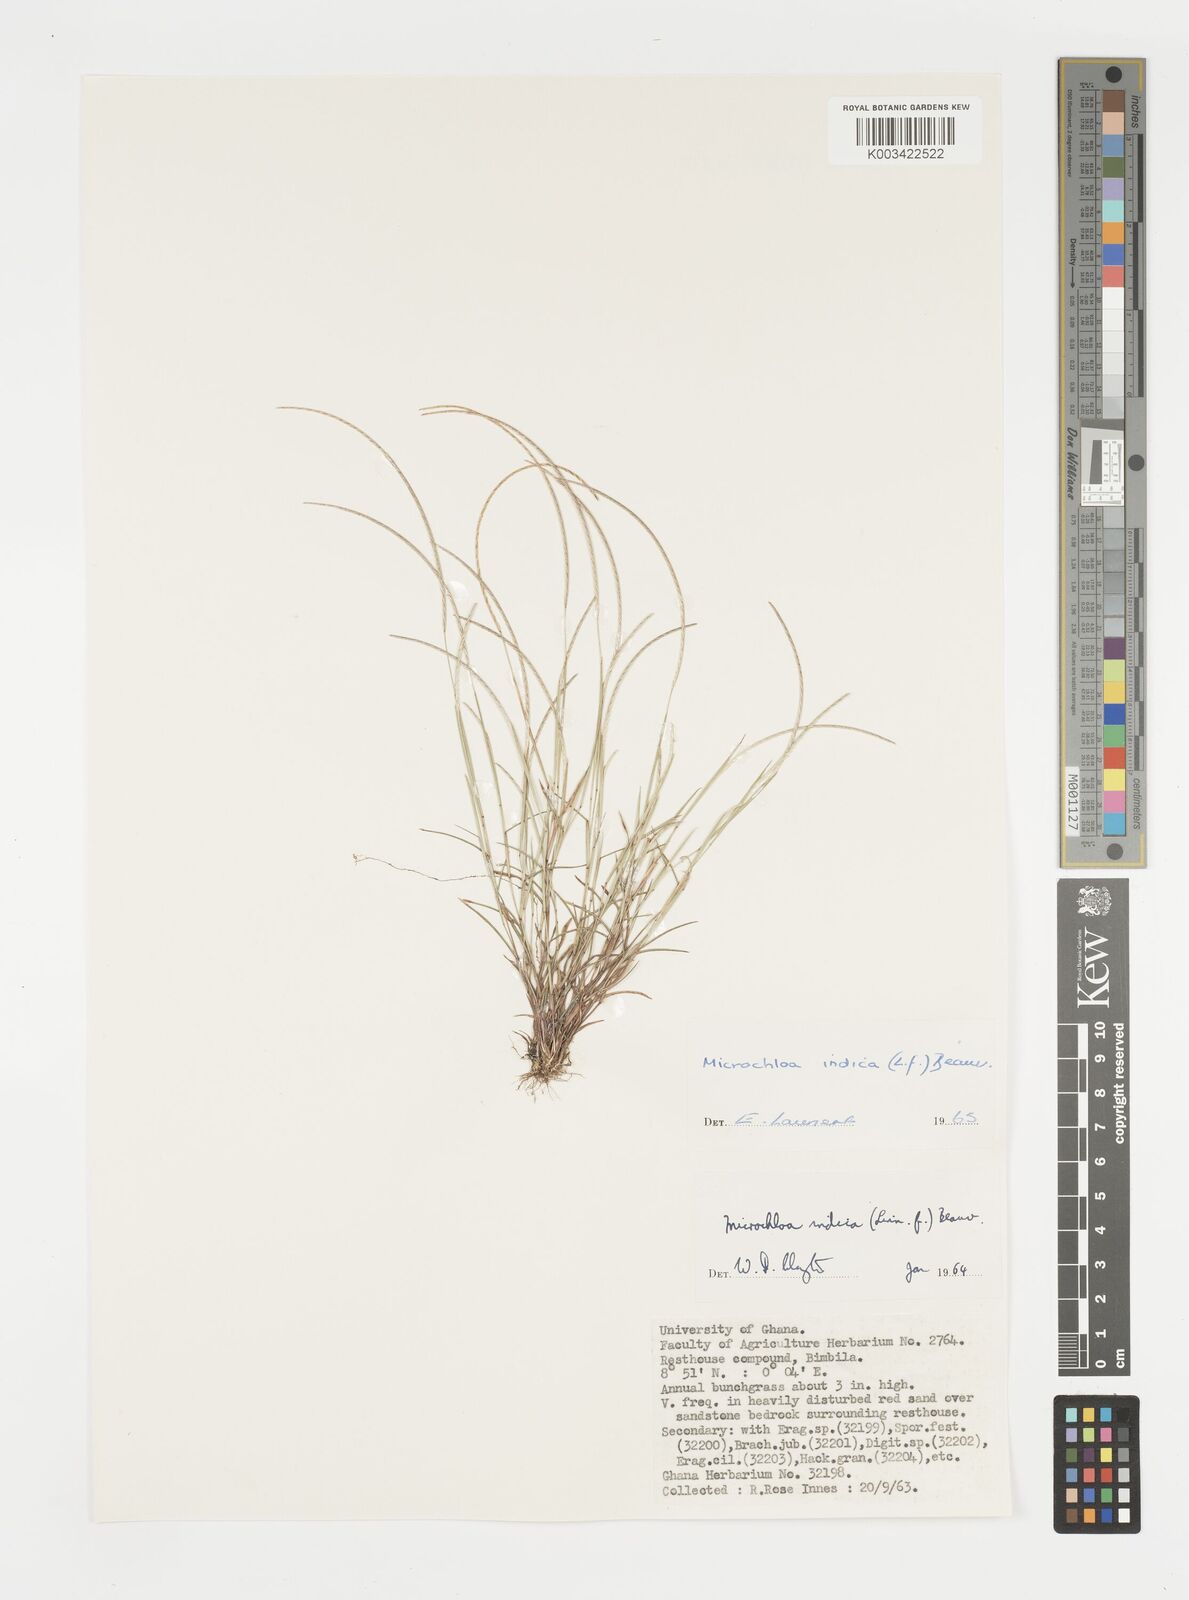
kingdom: Plantae
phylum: Tracheophyta
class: Liliopsida
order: Poales
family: Poaceae
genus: Microchloa
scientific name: Microchloa indica
